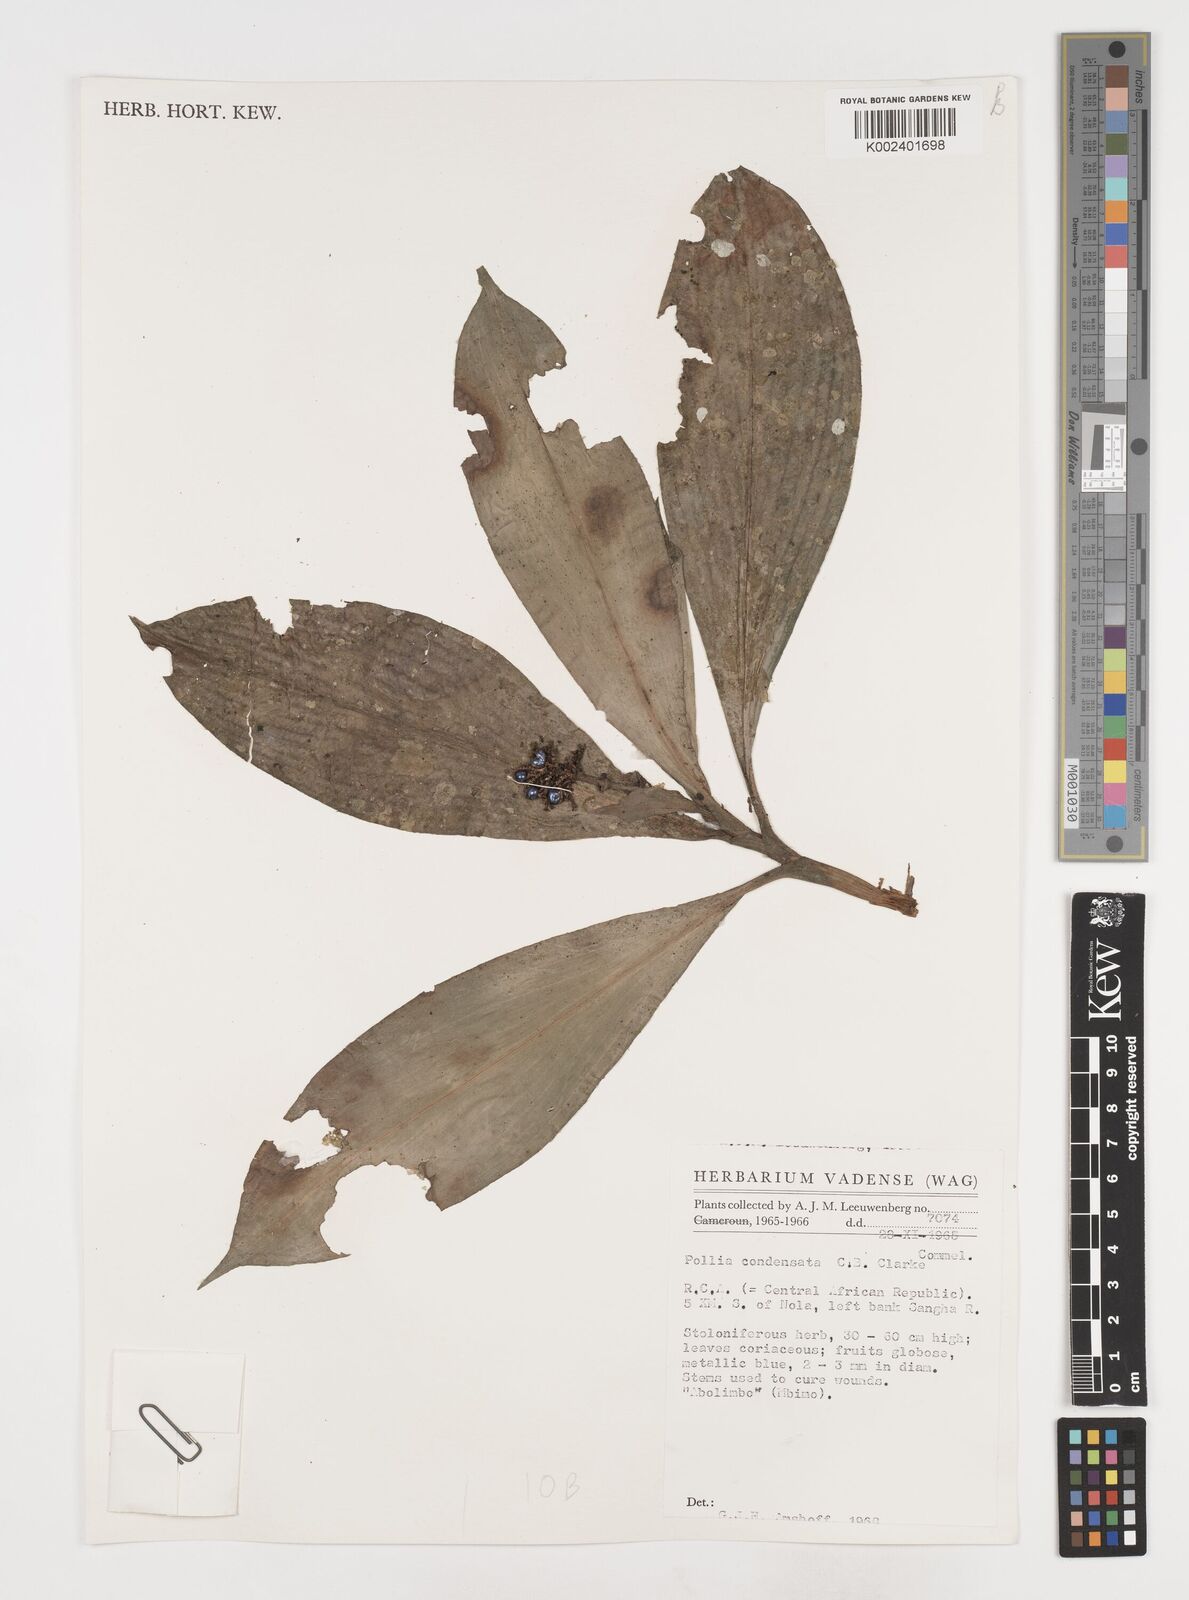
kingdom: Plantae
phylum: Tracheophyta
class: Liliopsida
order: Commelinales
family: Commelinaceae
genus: Pollia
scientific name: Pollia condensata
